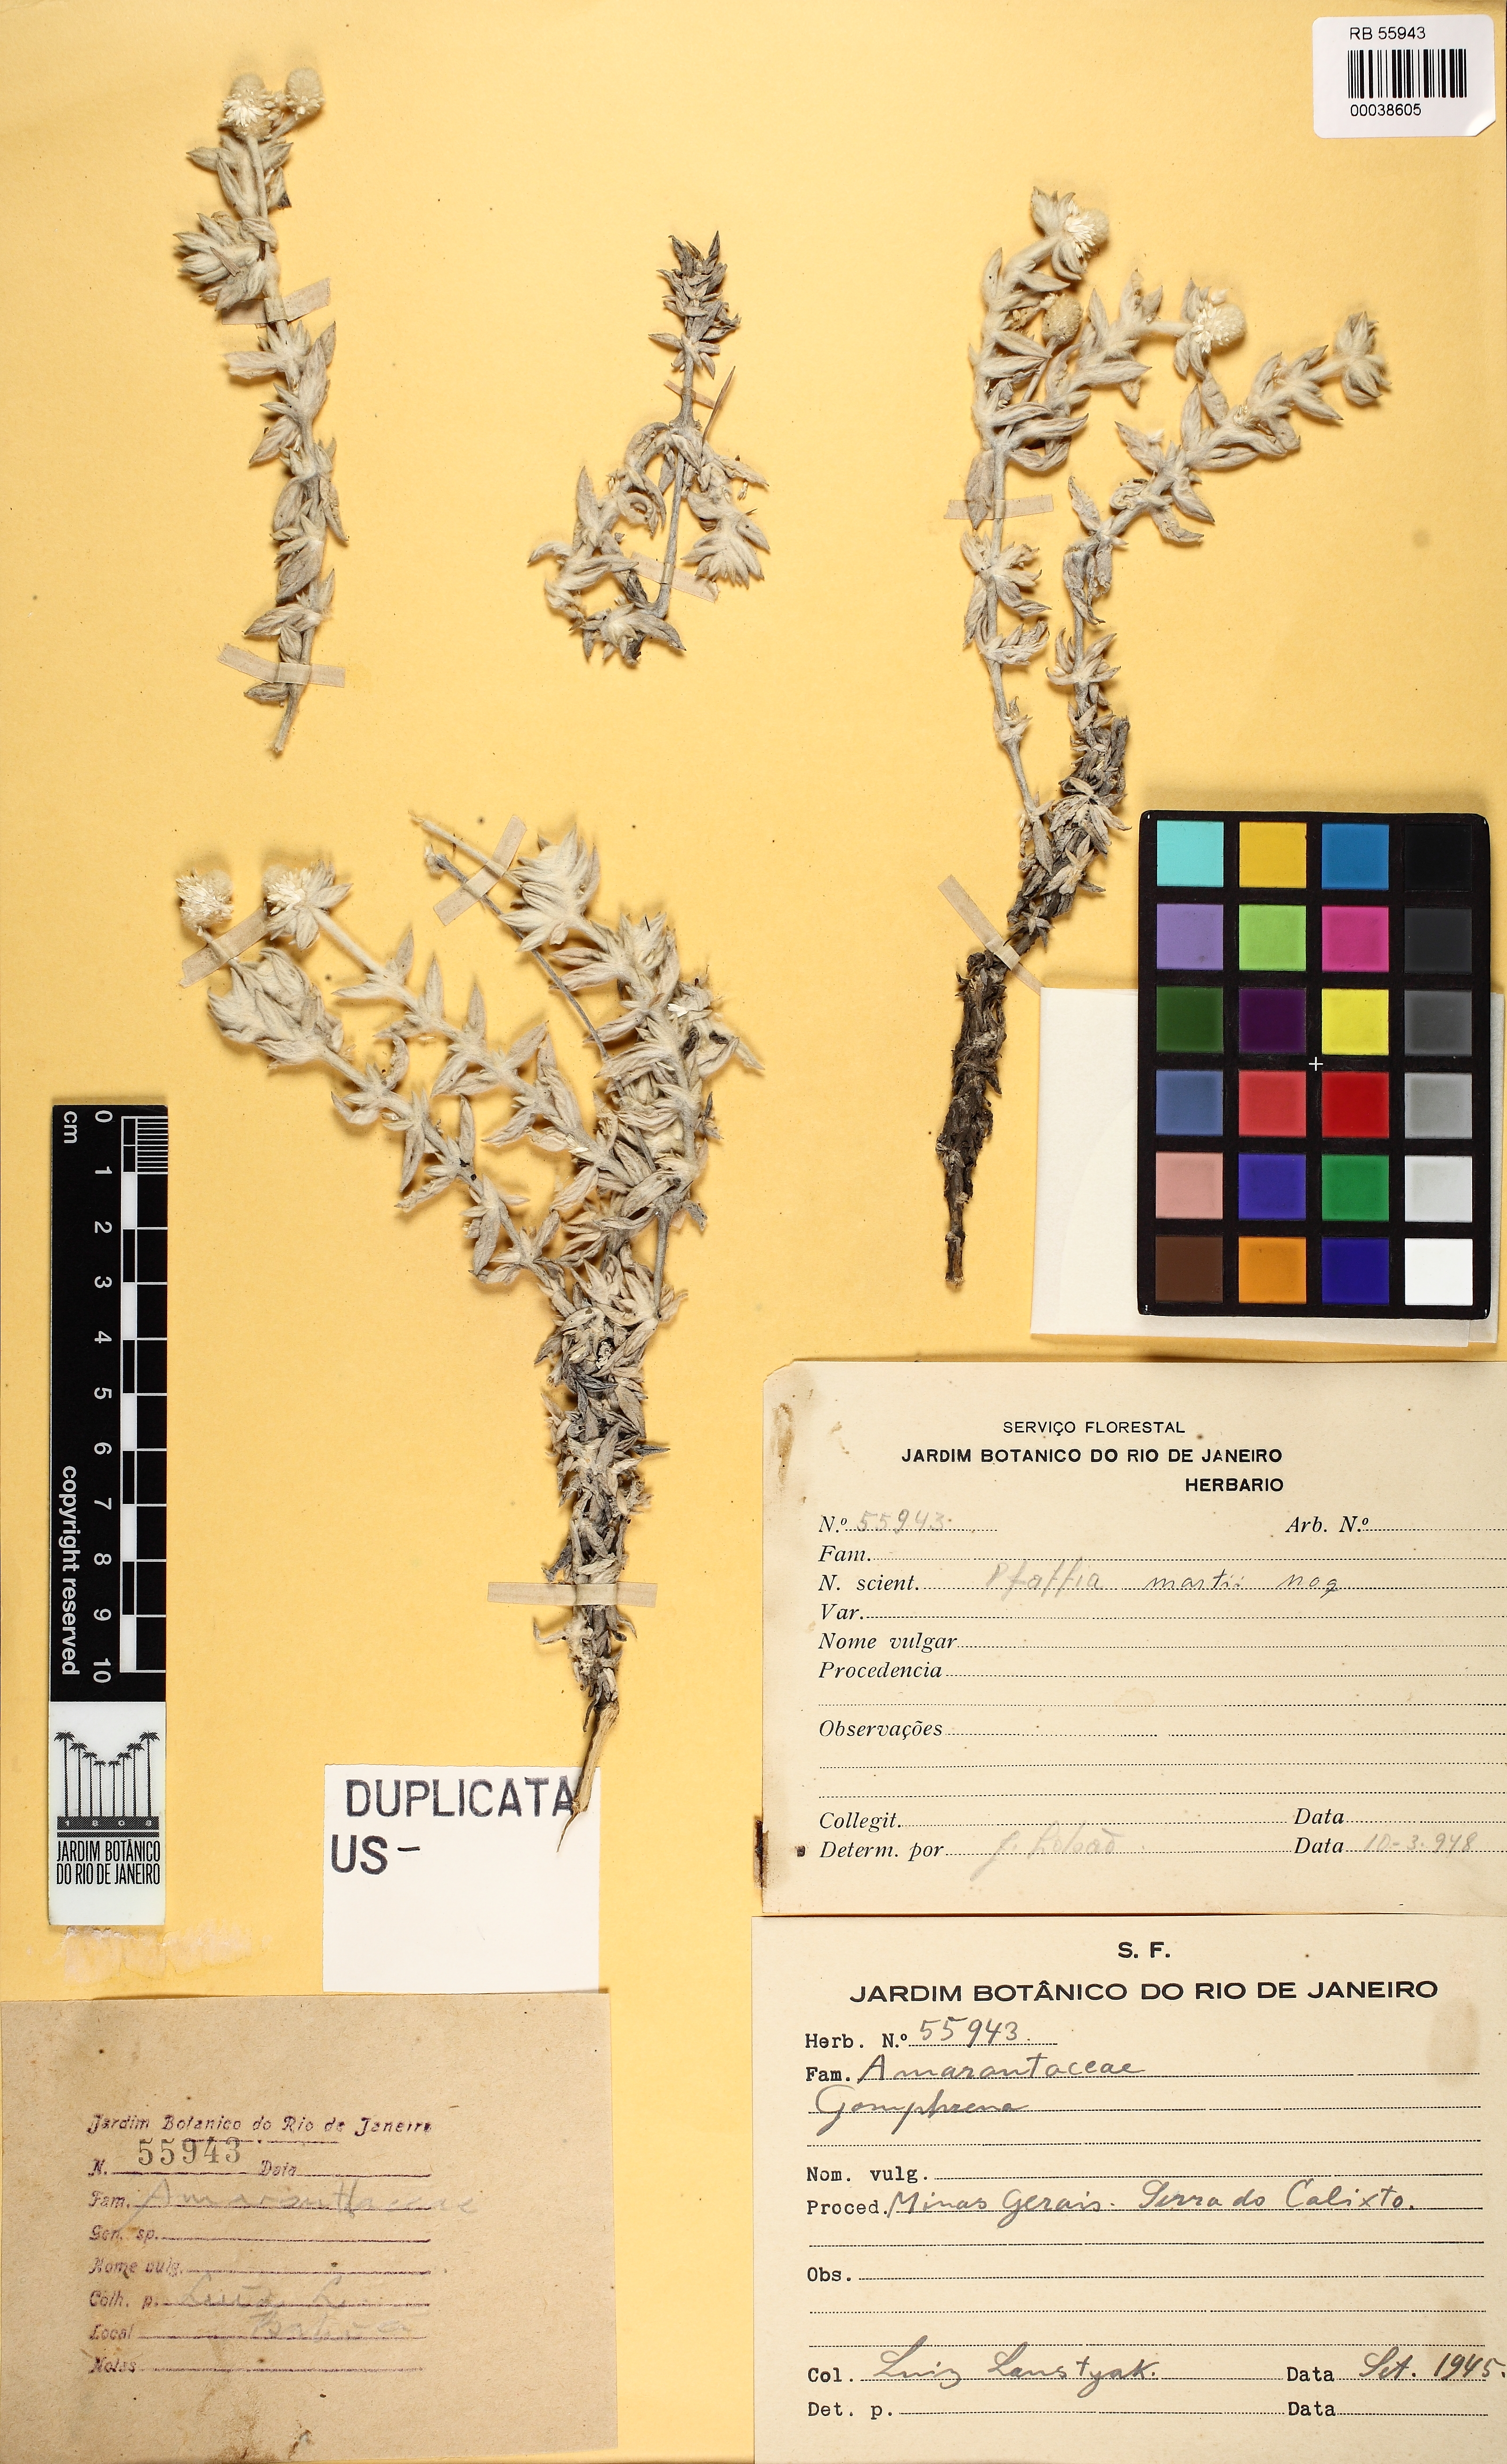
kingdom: Plantae
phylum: Tracheophyta
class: Magnoliopsida
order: Caryophyllales
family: Amaranthaceae
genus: Pfaffia
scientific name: Pfaffia minarum
